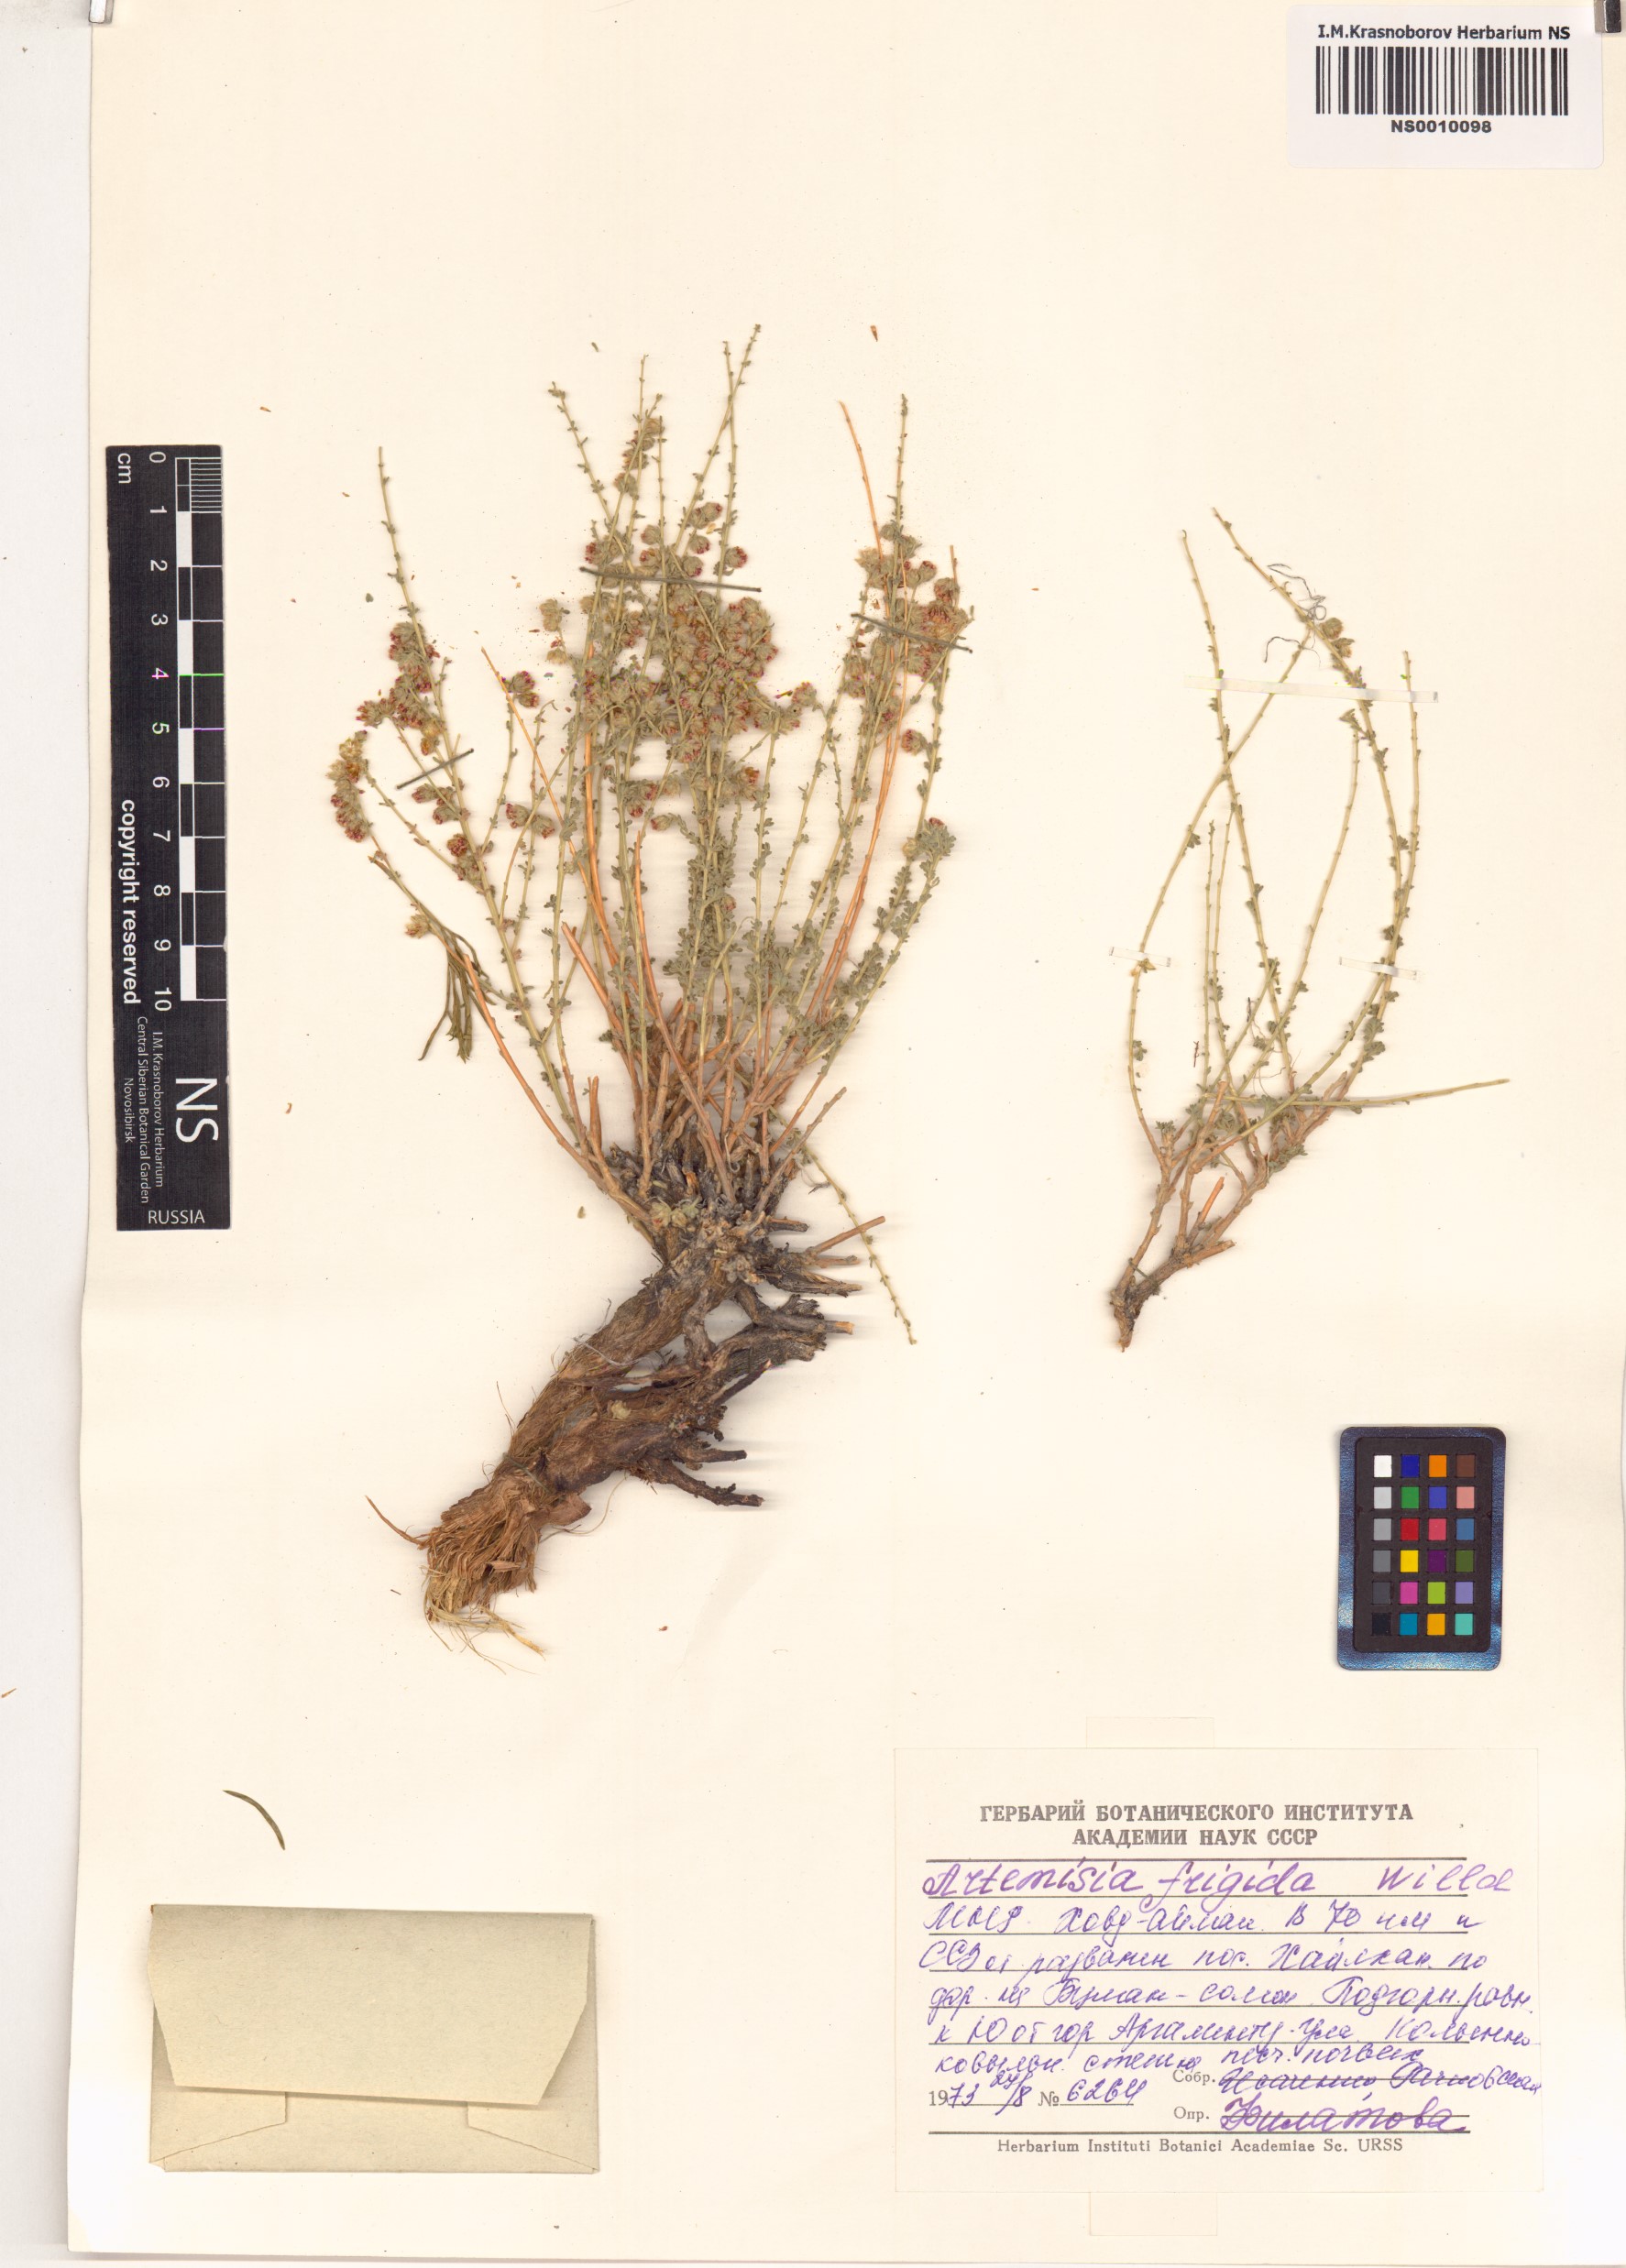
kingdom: Plantae
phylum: Tracheophyta
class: Magnoliopsida
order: Asterales
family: Asteraceae
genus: Artemisia
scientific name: Artemisia frigida
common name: Prairie sagewort
